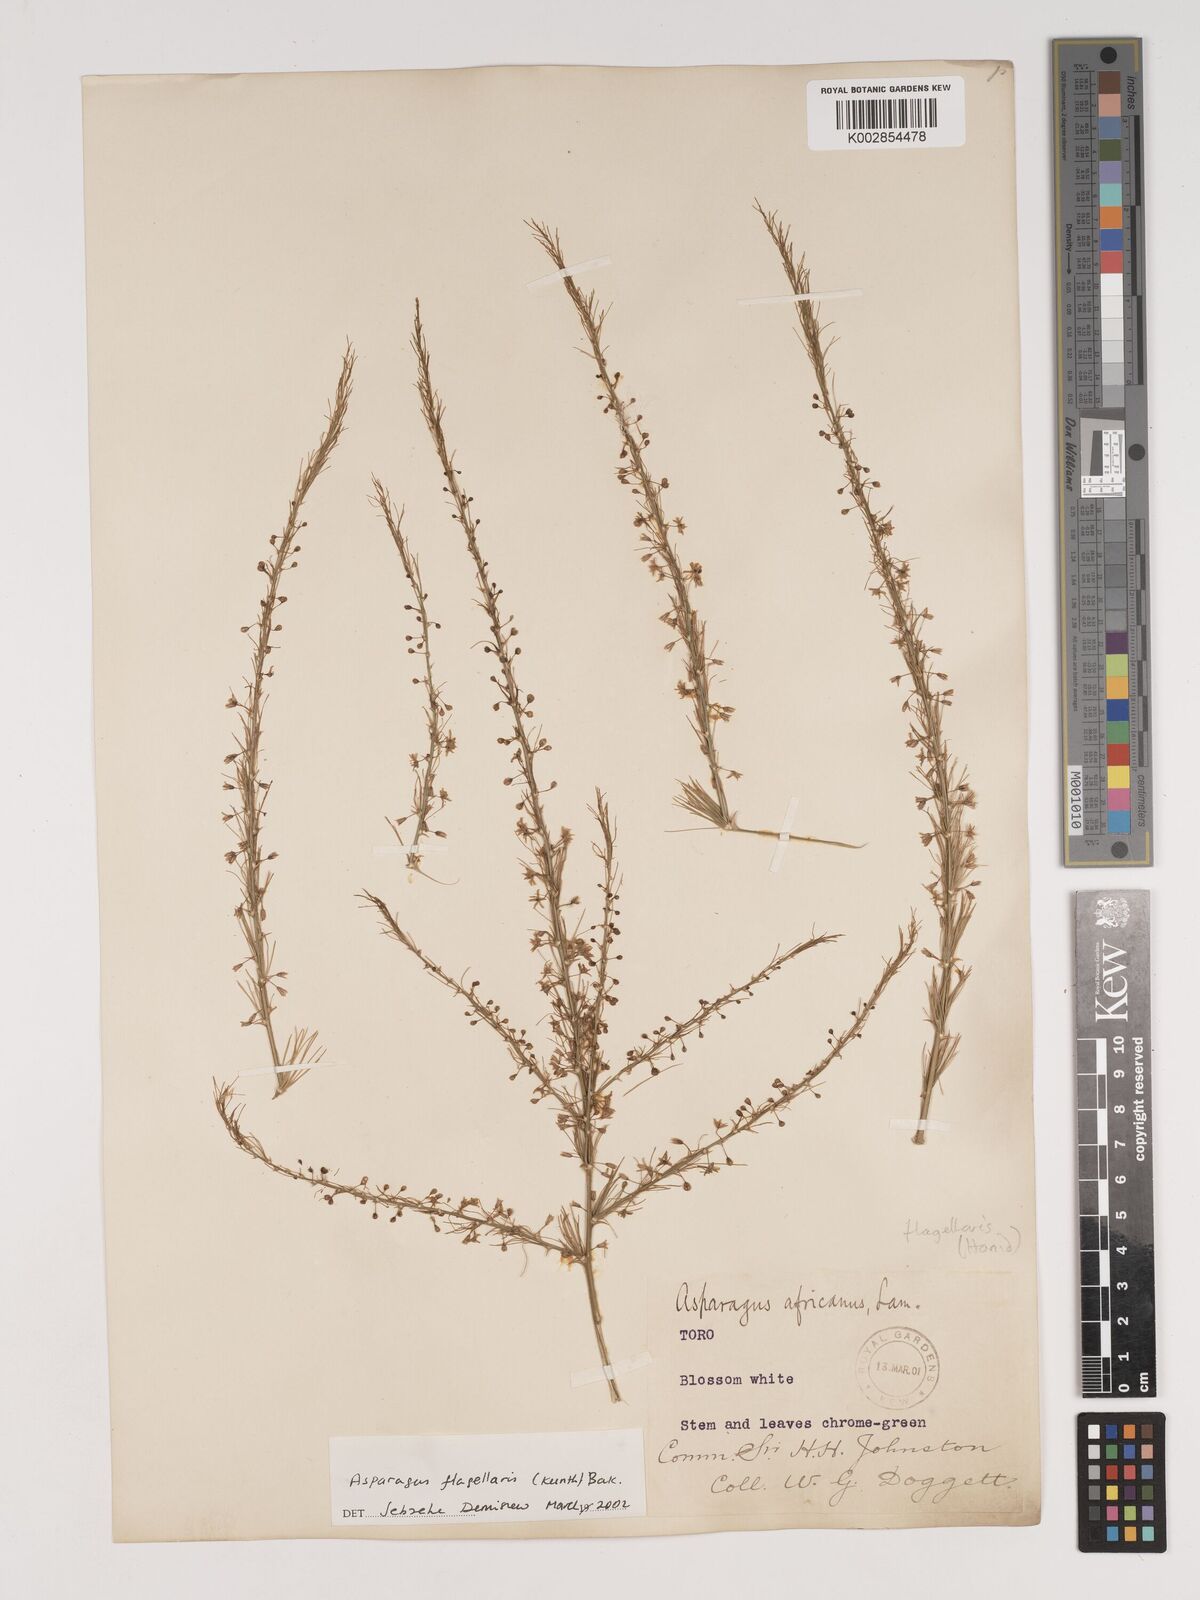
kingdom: Plantae
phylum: Tracheophyta
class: Liliopsida
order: Asparagales
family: Asparagaceae
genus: Asparagus
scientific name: Asparagus flagellaris
